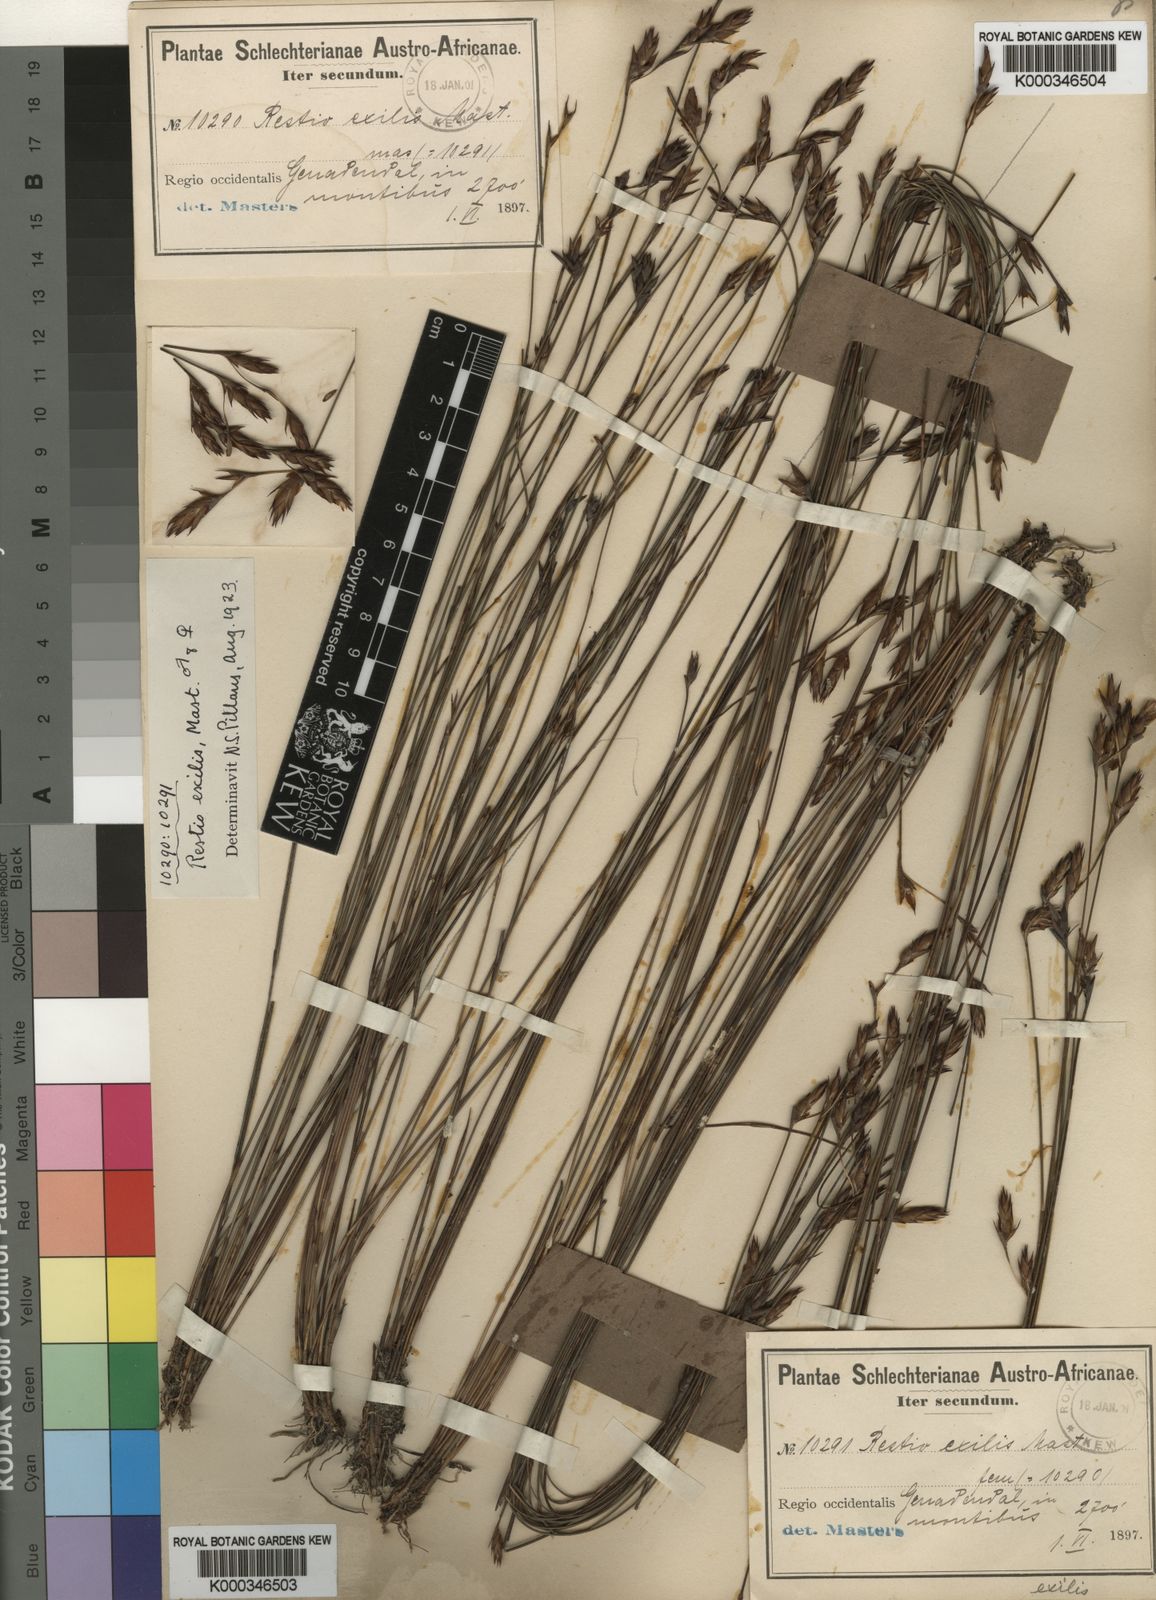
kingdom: Plantae
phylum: Tracheophyta
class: Liliopsida
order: Poales
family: Restionaceae
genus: Restio
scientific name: Restio exilis
